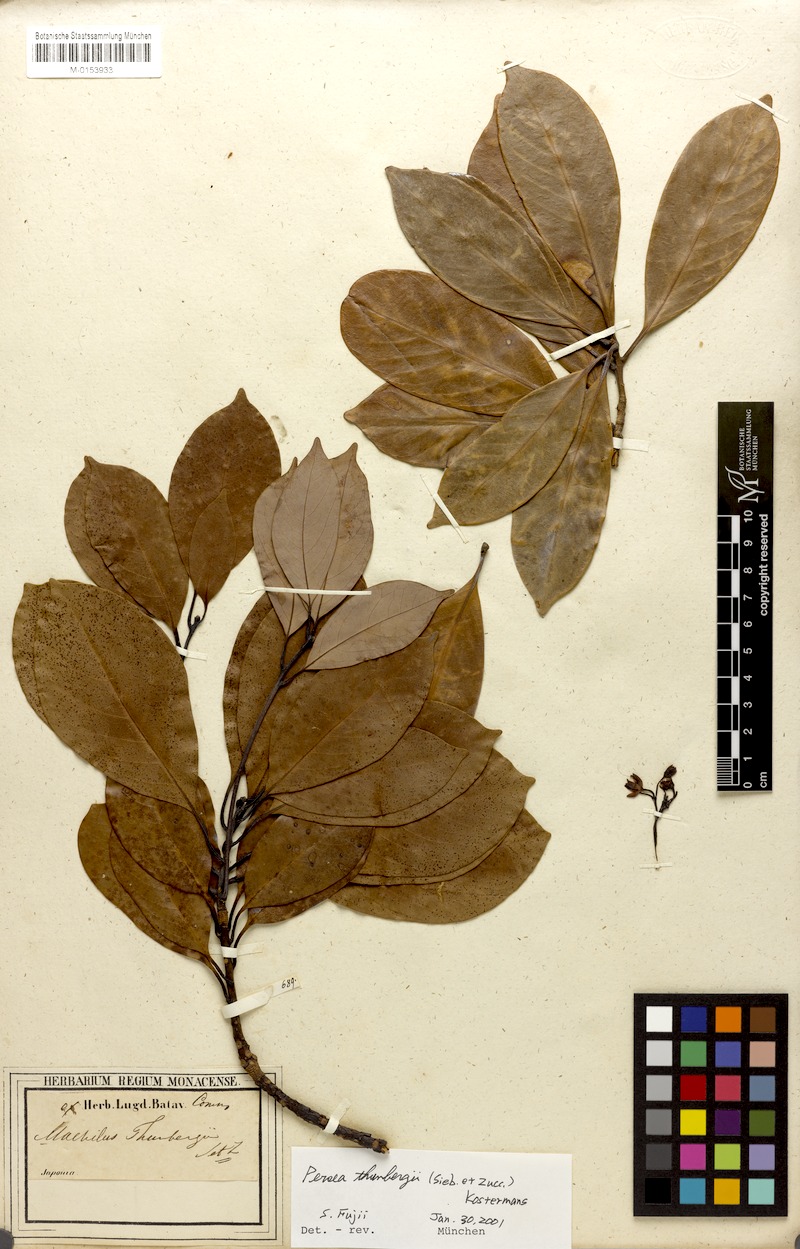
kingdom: Plantae
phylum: Tracheophyta
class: Magnoliopsida
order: Laurales
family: Lauraceae
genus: Machilus
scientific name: Machilus thunbergii
